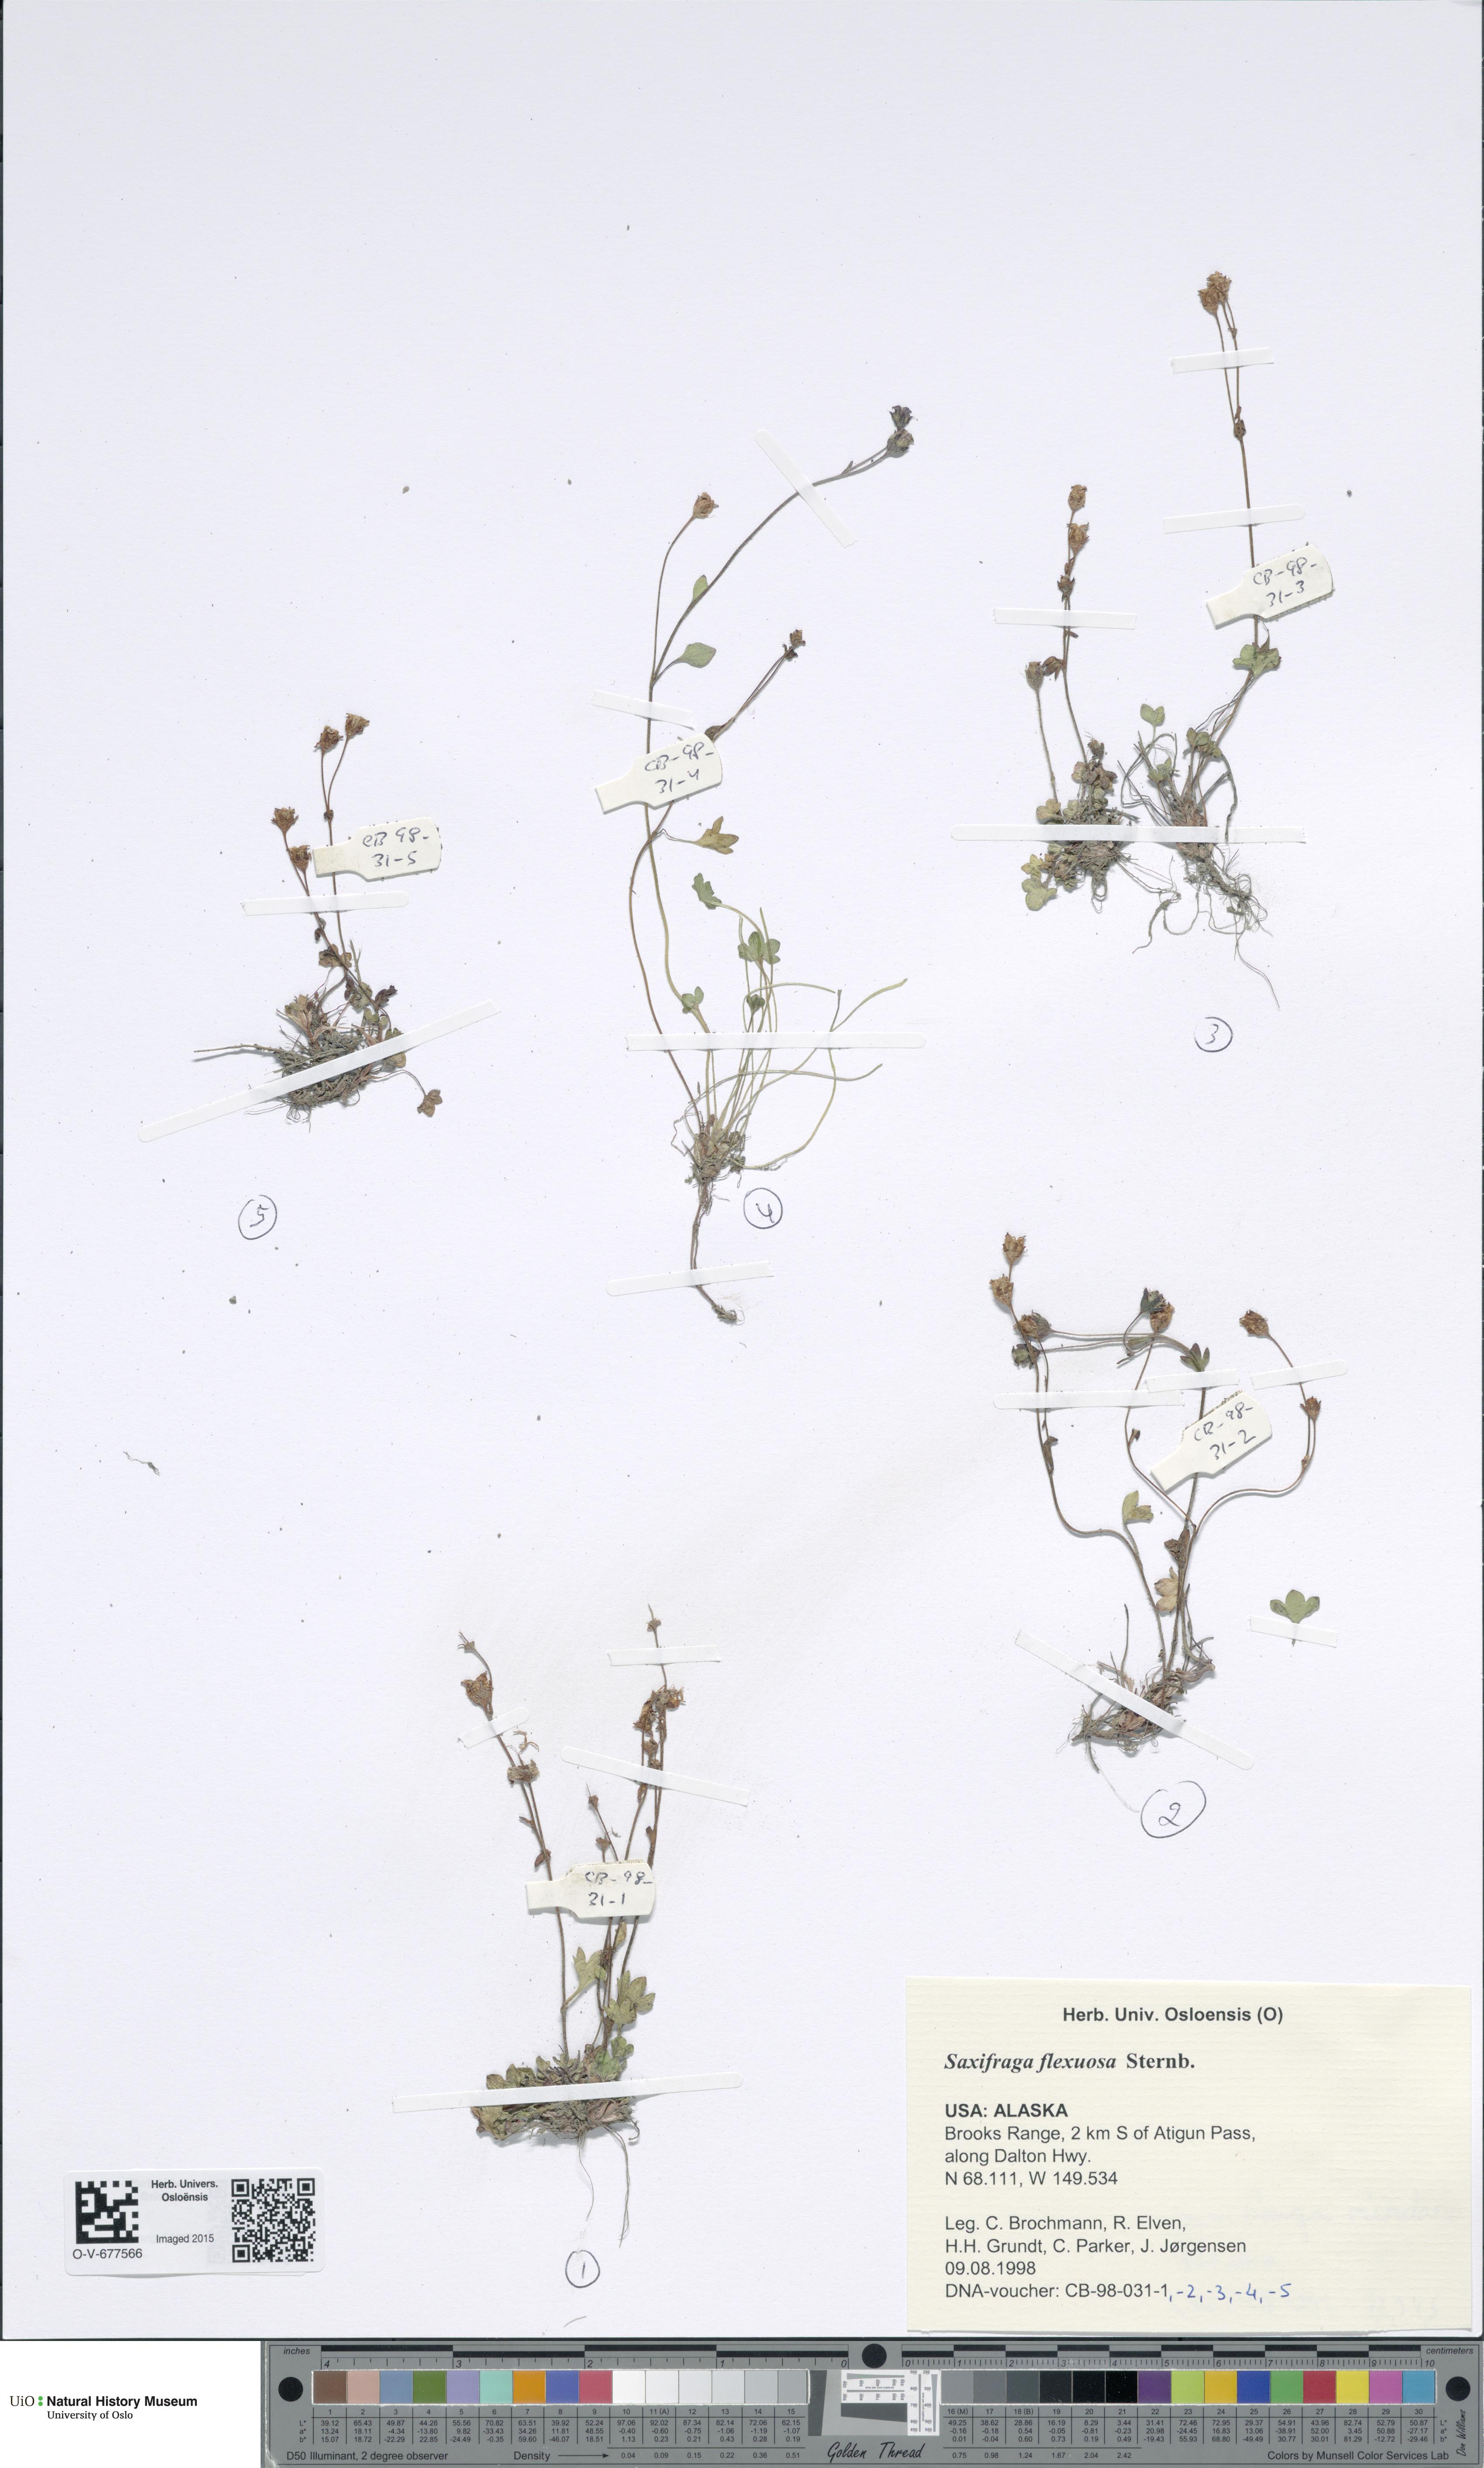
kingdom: Plantae
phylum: Tracheophyta
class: Magnoliopsida
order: Saxifragales
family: Saxifragaceae
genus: Saxifraga
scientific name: Saxifraga hyperborea
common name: Arctic saxifrage
